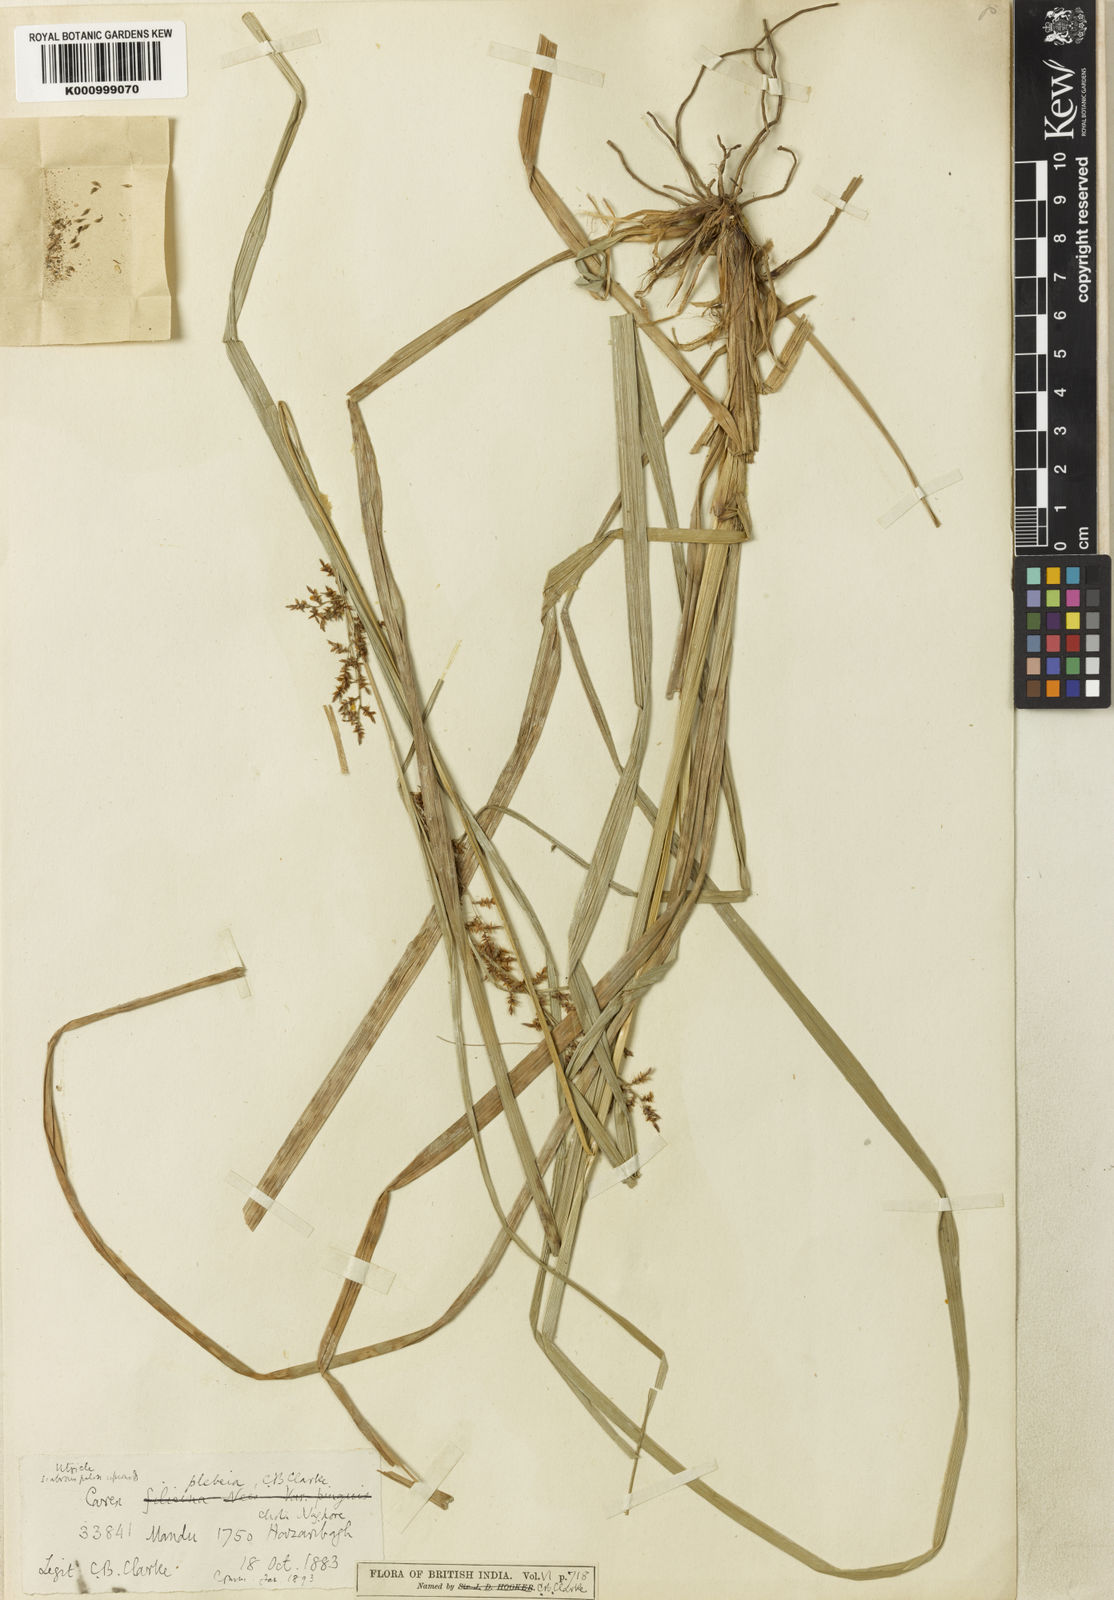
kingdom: Plantae
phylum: Tracheophyta
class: Liliopsida
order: Poales
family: Cyperaceae
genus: Carex
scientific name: Carex continua
